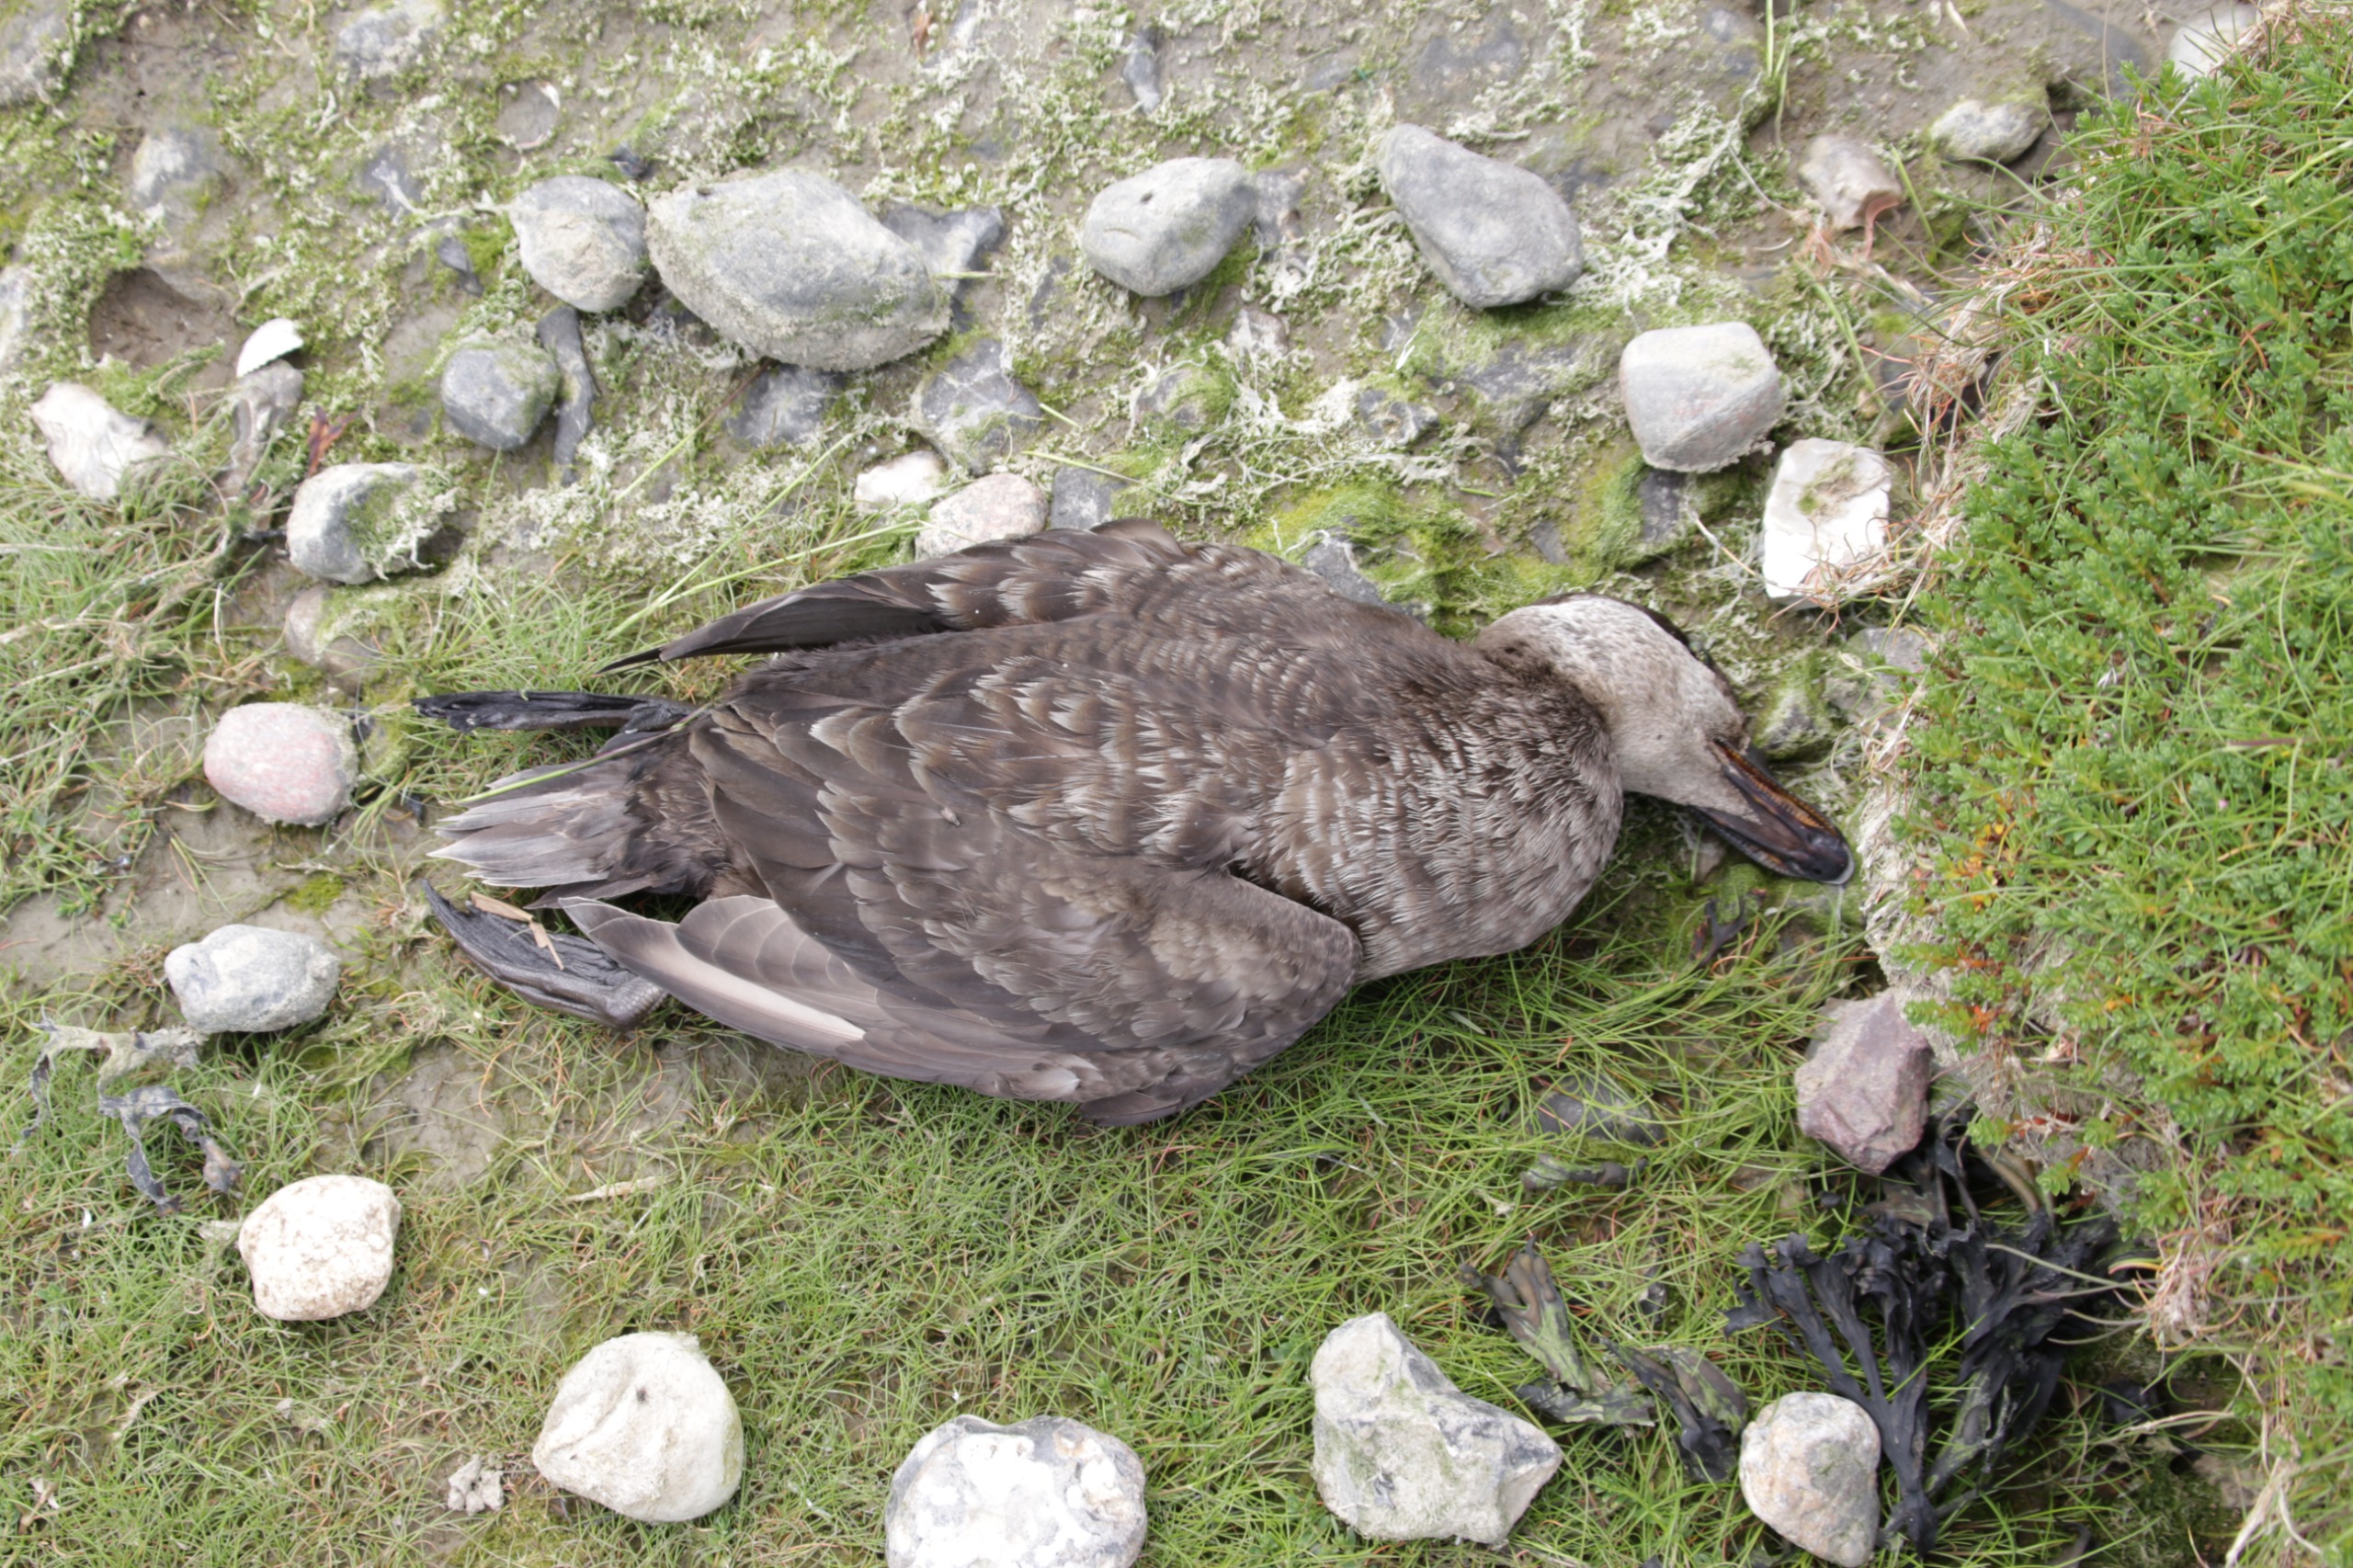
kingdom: Animalia
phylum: Chordata
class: Aves
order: Anseriformes
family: Anatidae
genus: Melanitta
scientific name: Melanitta nigra
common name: Sortand
